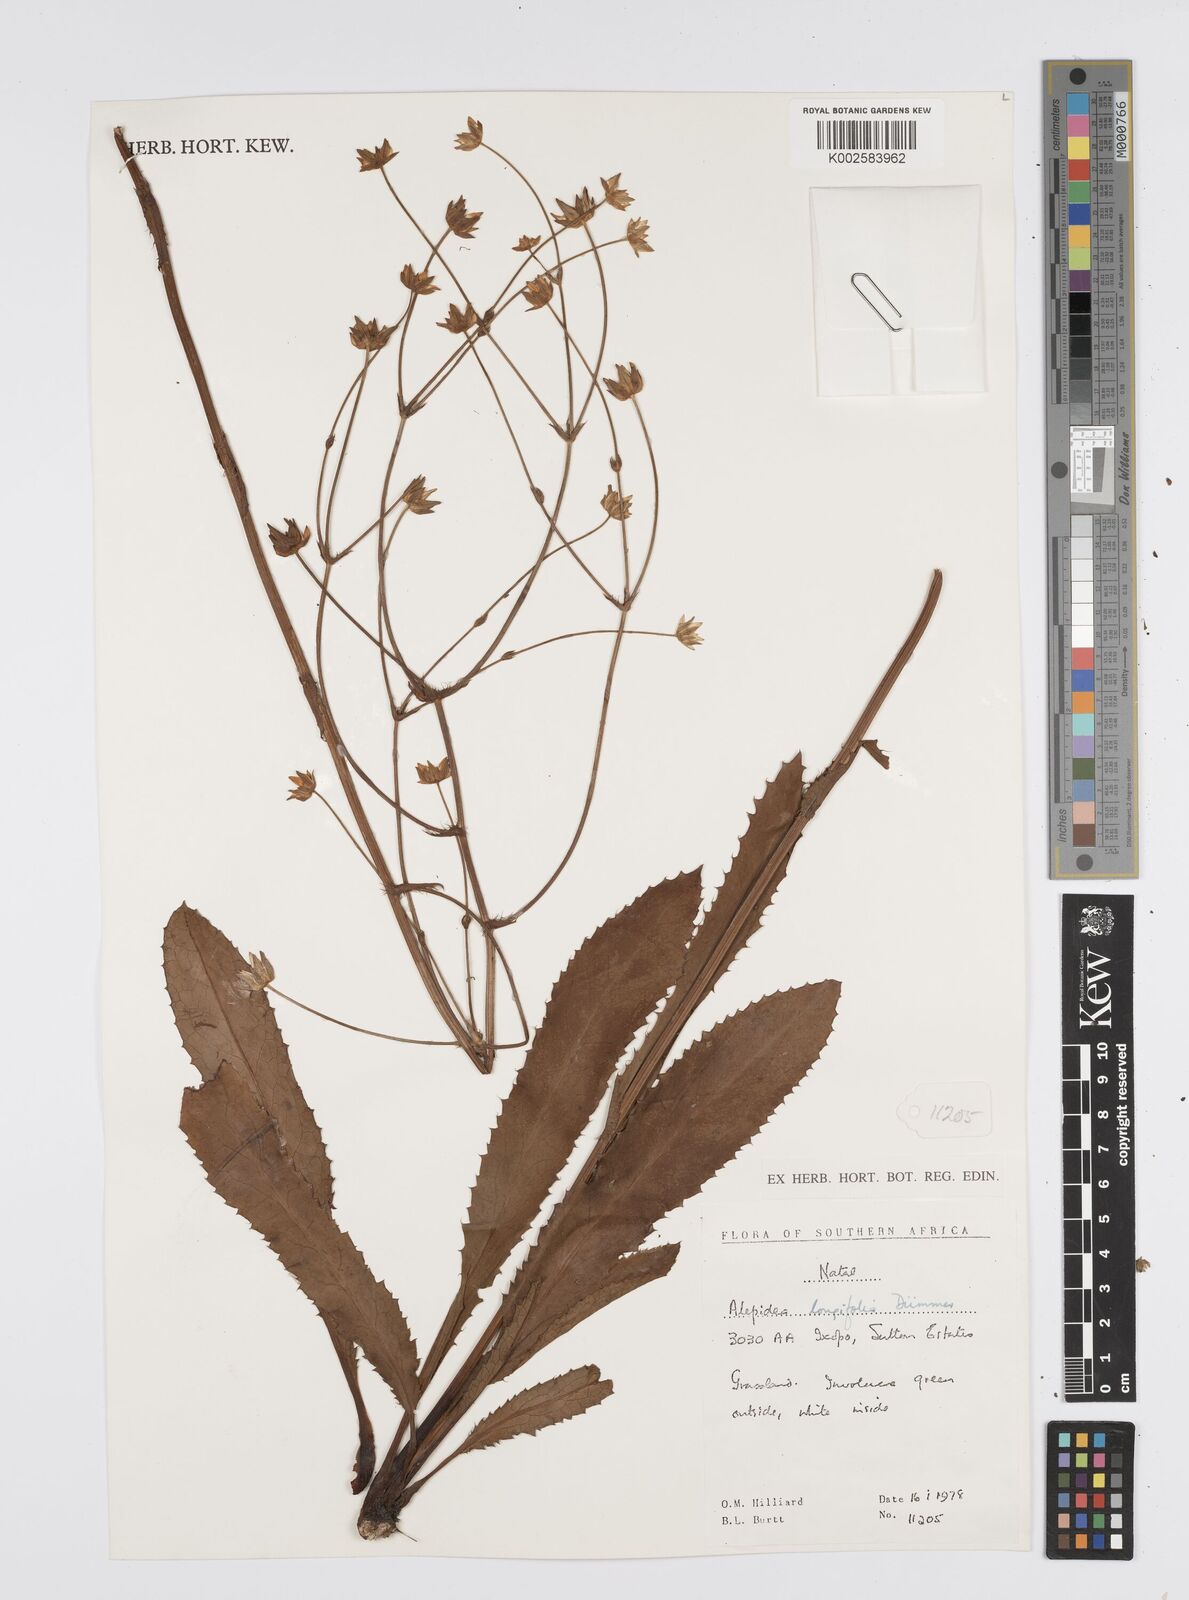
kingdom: Plantae
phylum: Tracheophyta
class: Magnoliopsida
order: Apiales
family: Apiaceae
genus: Alepidea
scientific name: Alepidea
